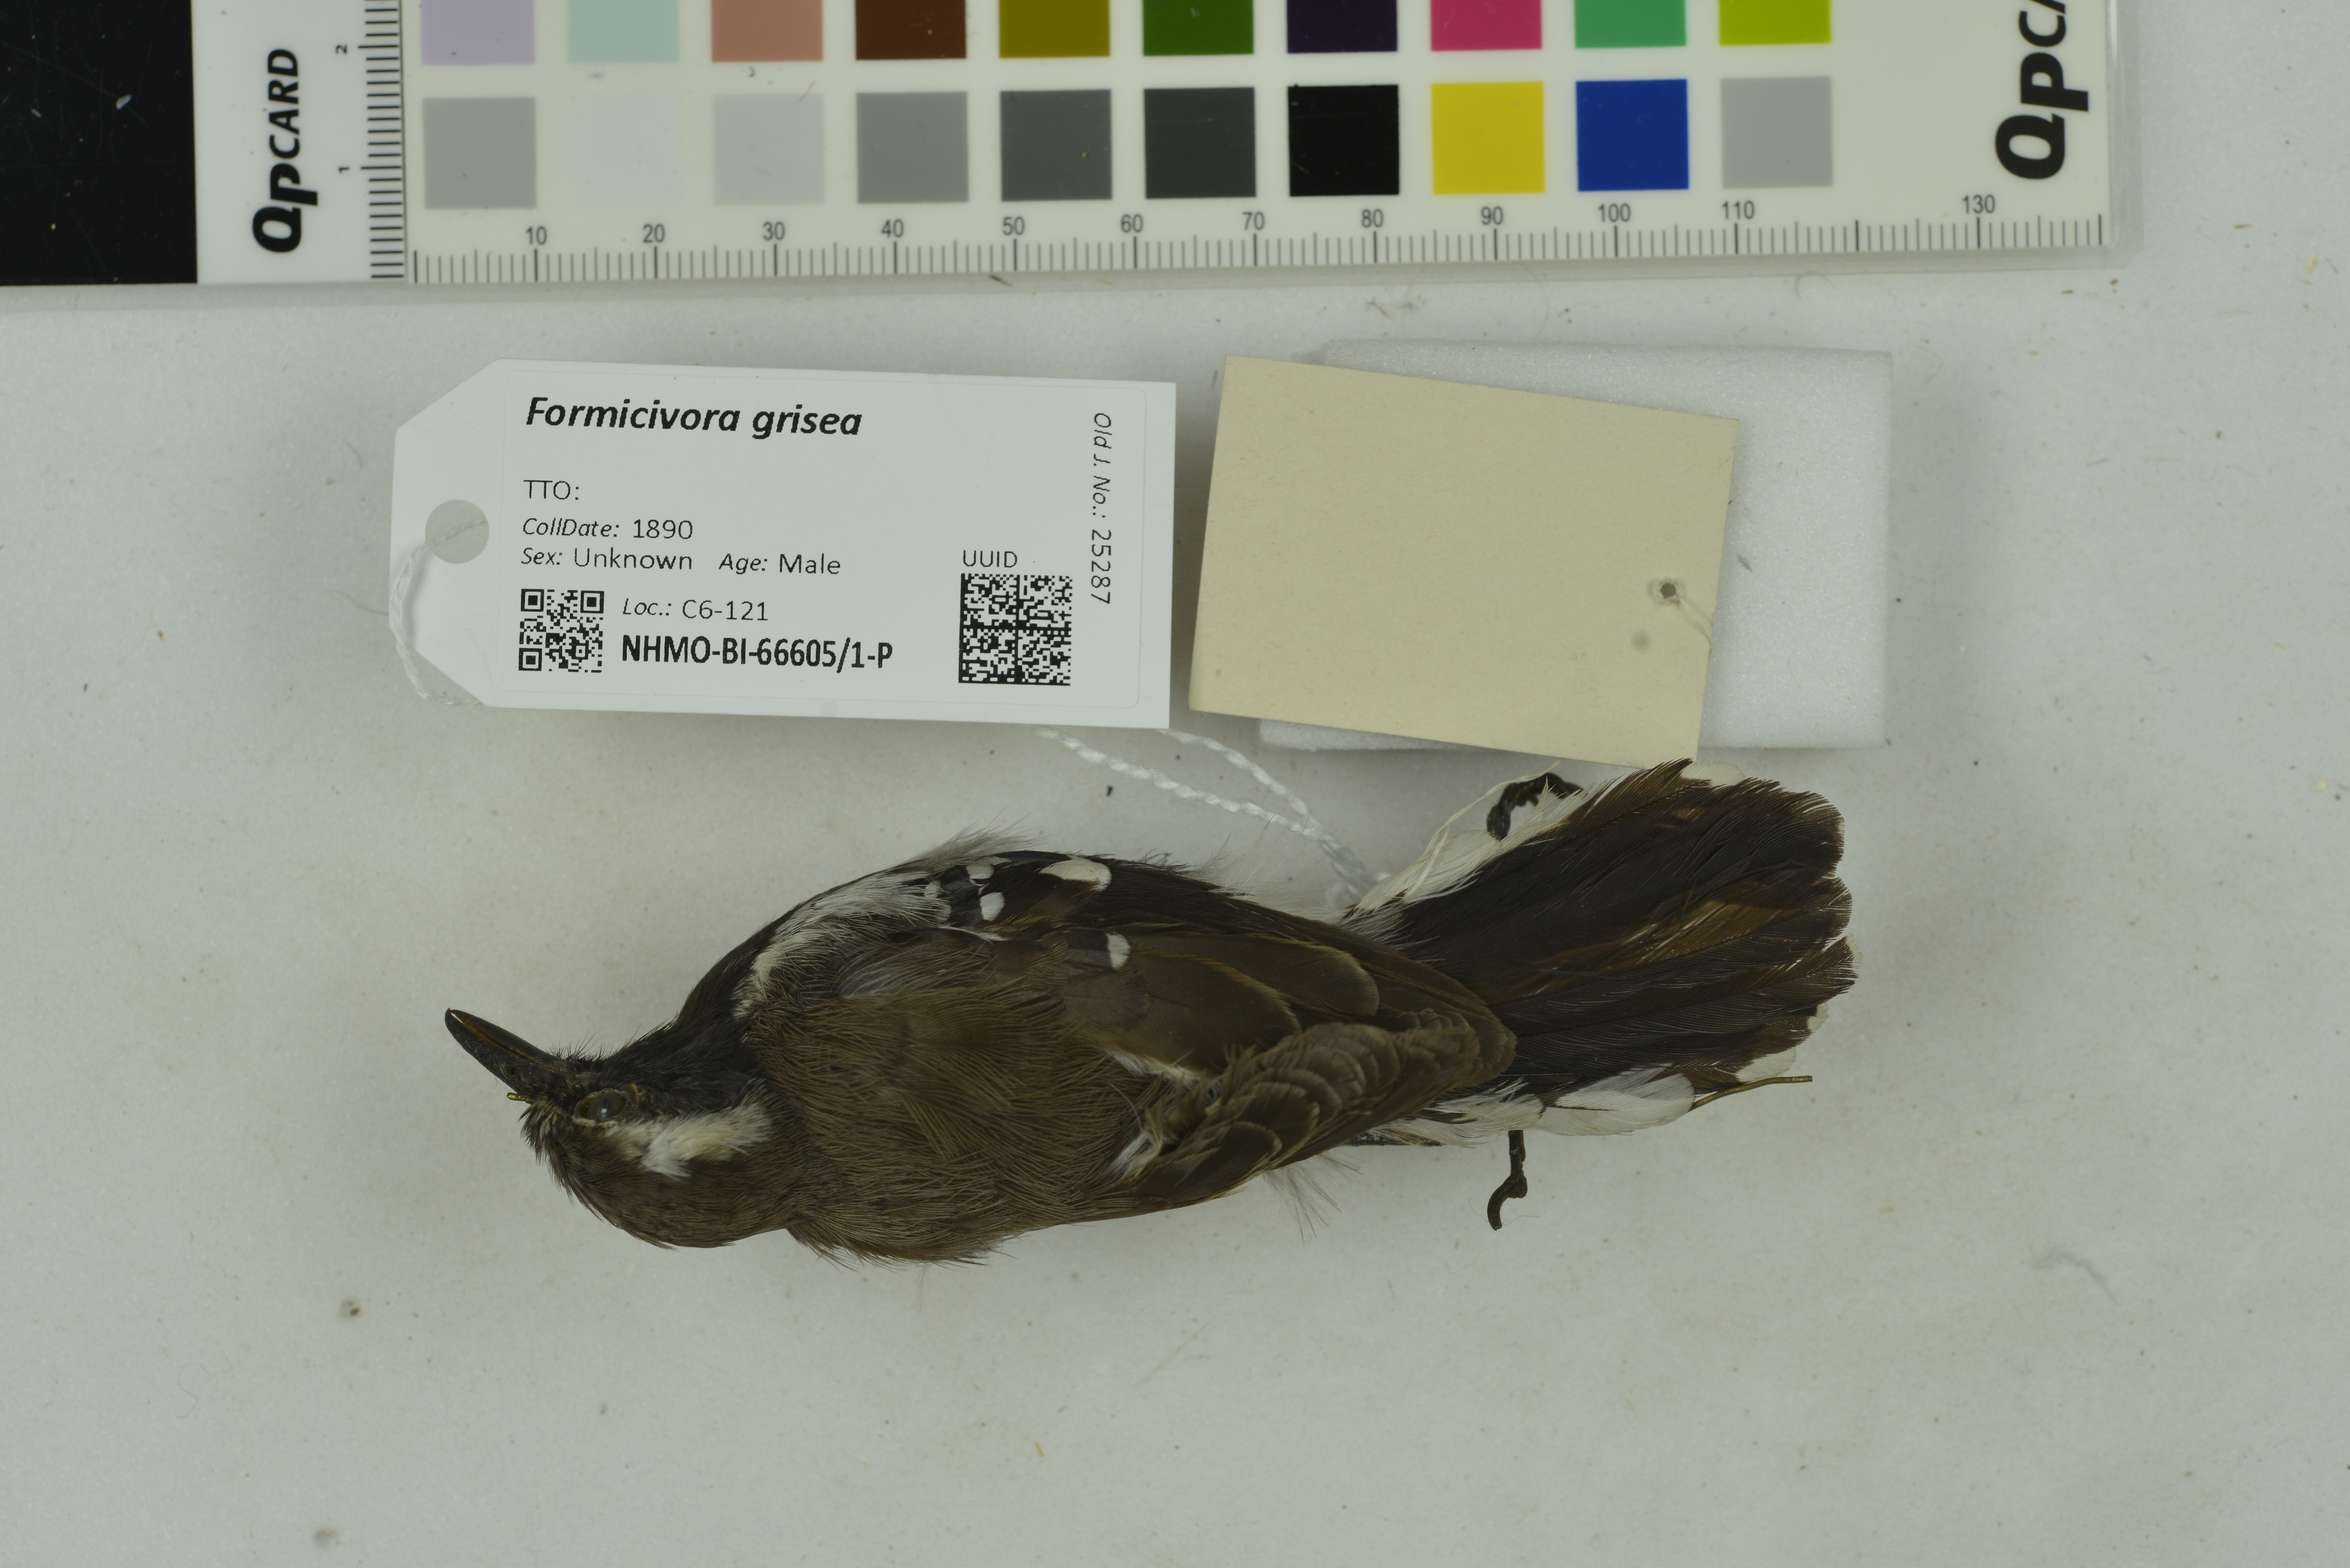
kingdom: Animalia
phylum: Chordata
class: Aves
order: Passeriformes
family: Thamnophilidae
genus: Formicivora
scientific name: Formicivora grisea
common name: Southern white-fringed antwren
